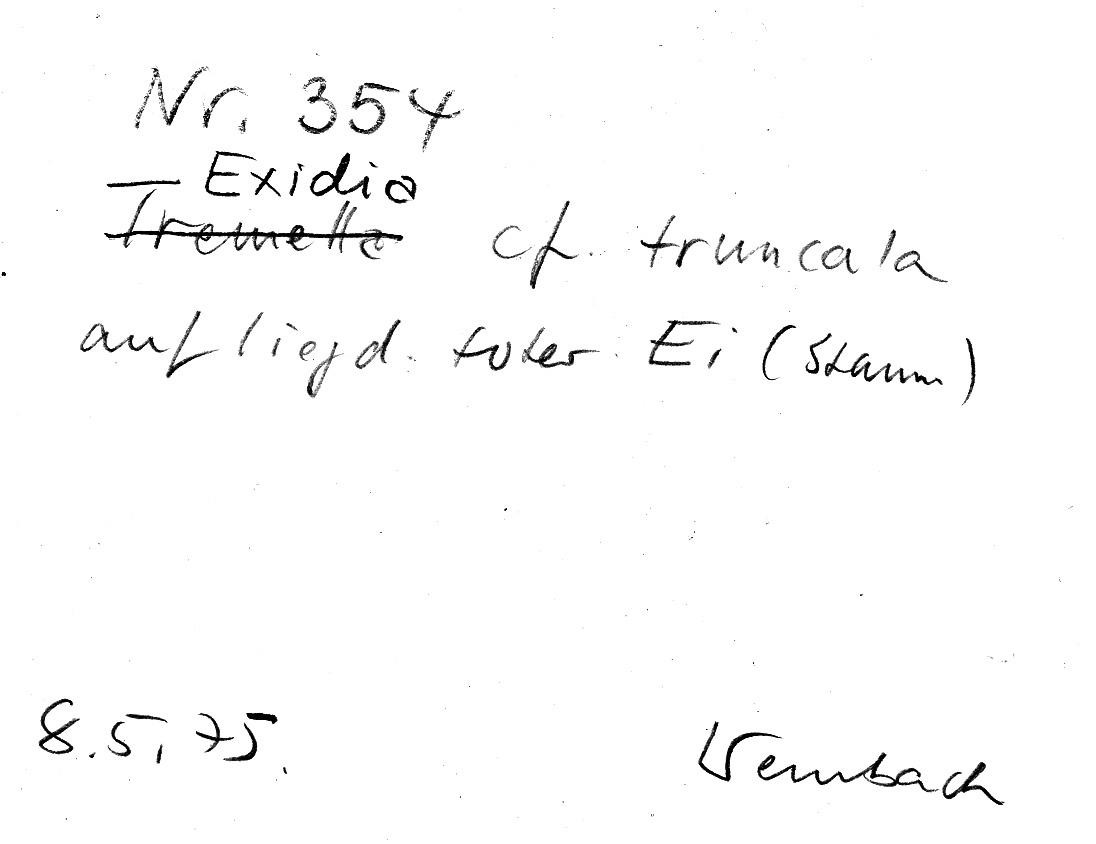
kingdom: Plantae
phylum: Tracheophyta
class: Magnoliopsida
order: Fagales
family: Fagaceae
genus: Quercus
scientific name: Quercus
